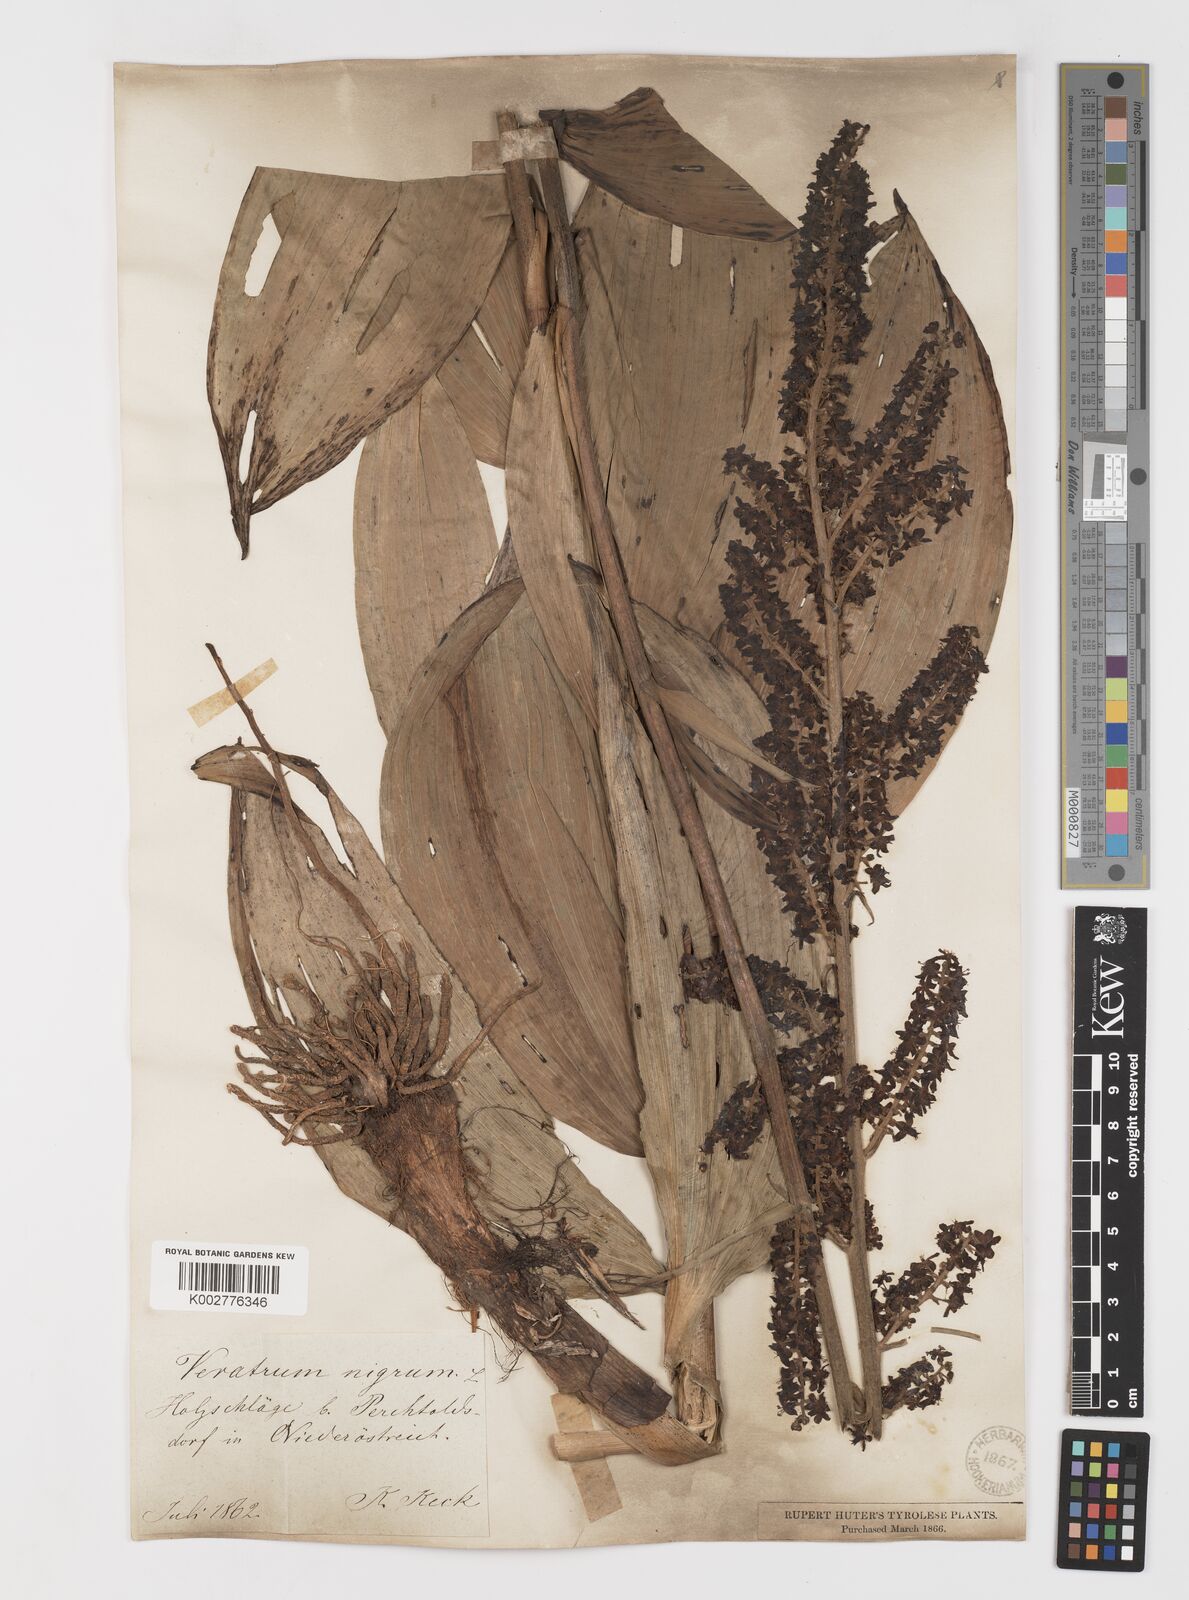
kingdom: Plantae
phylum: Tracheophyta
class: Liliopsida
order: Liliales
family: Melanthiaceae
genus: Veratrum
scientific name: Veratrum nigrum
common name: Black veratrum
